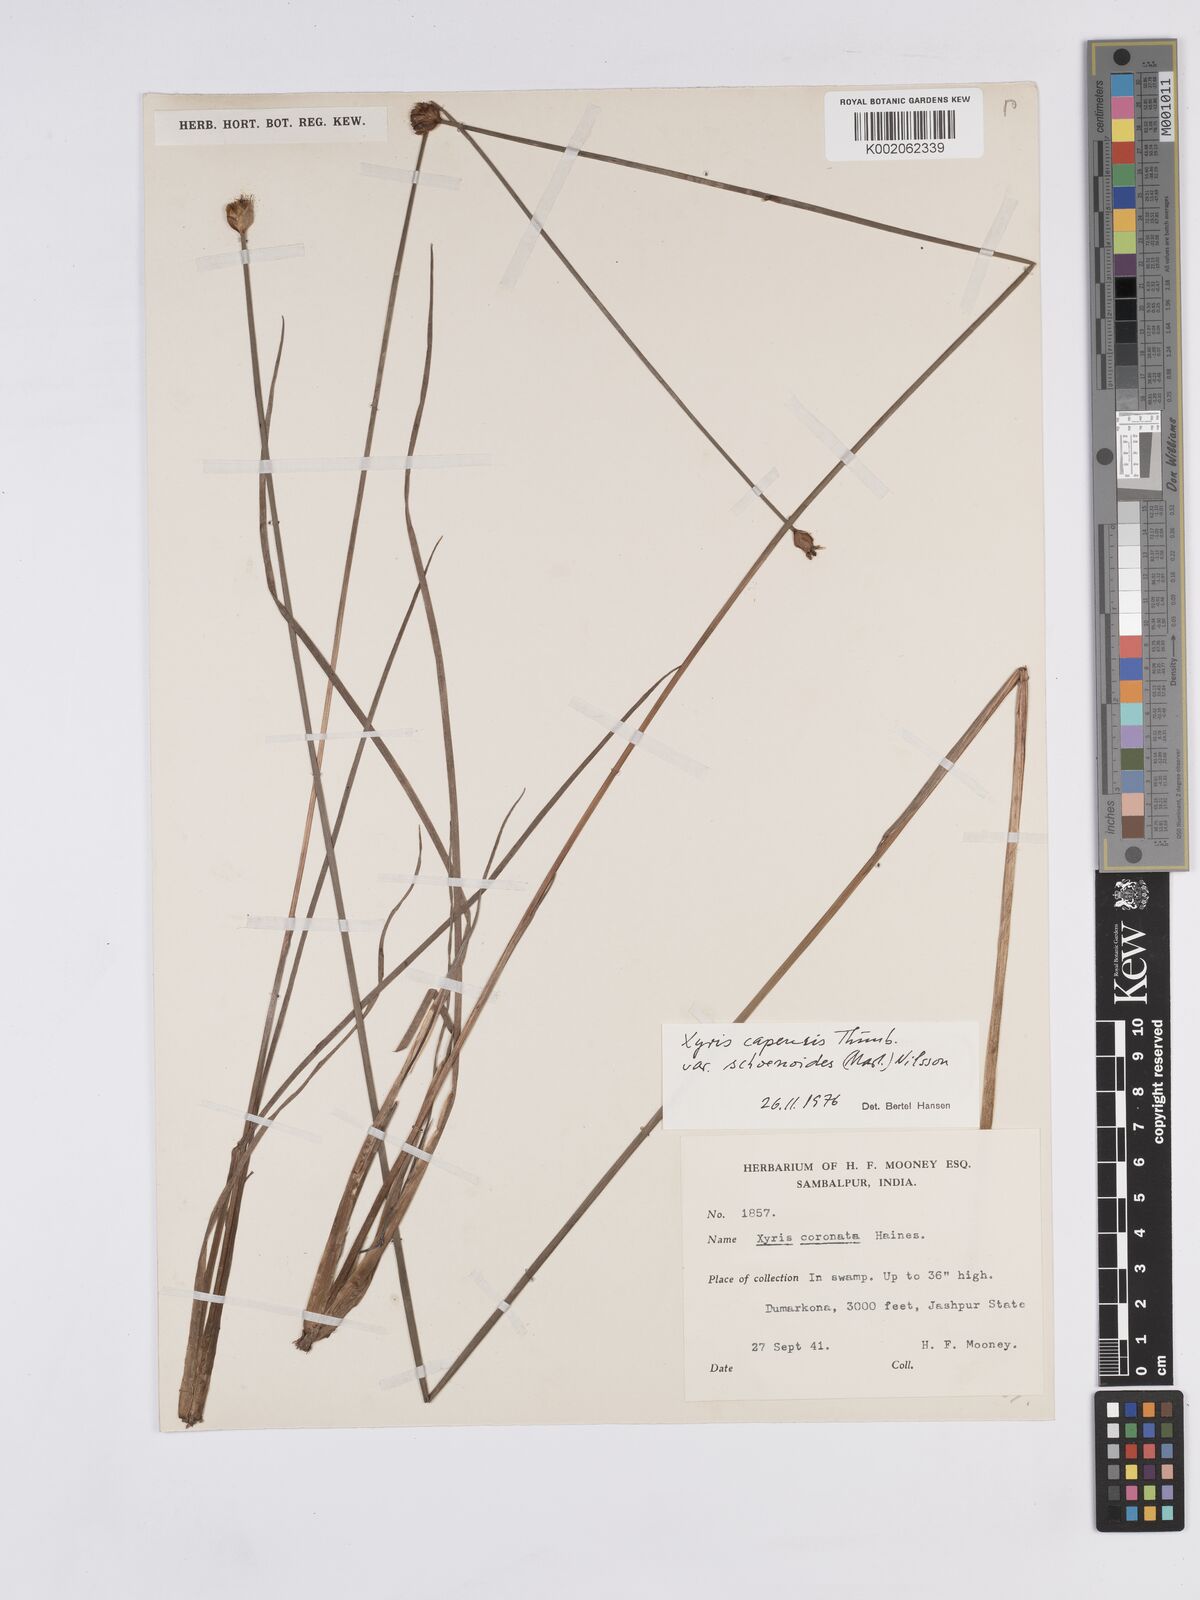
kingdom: Plantae
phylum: Tracheophyta
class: Liliopsida
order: Poales
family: Xyridaceae
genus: Xyris
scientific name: Xyris congensis
